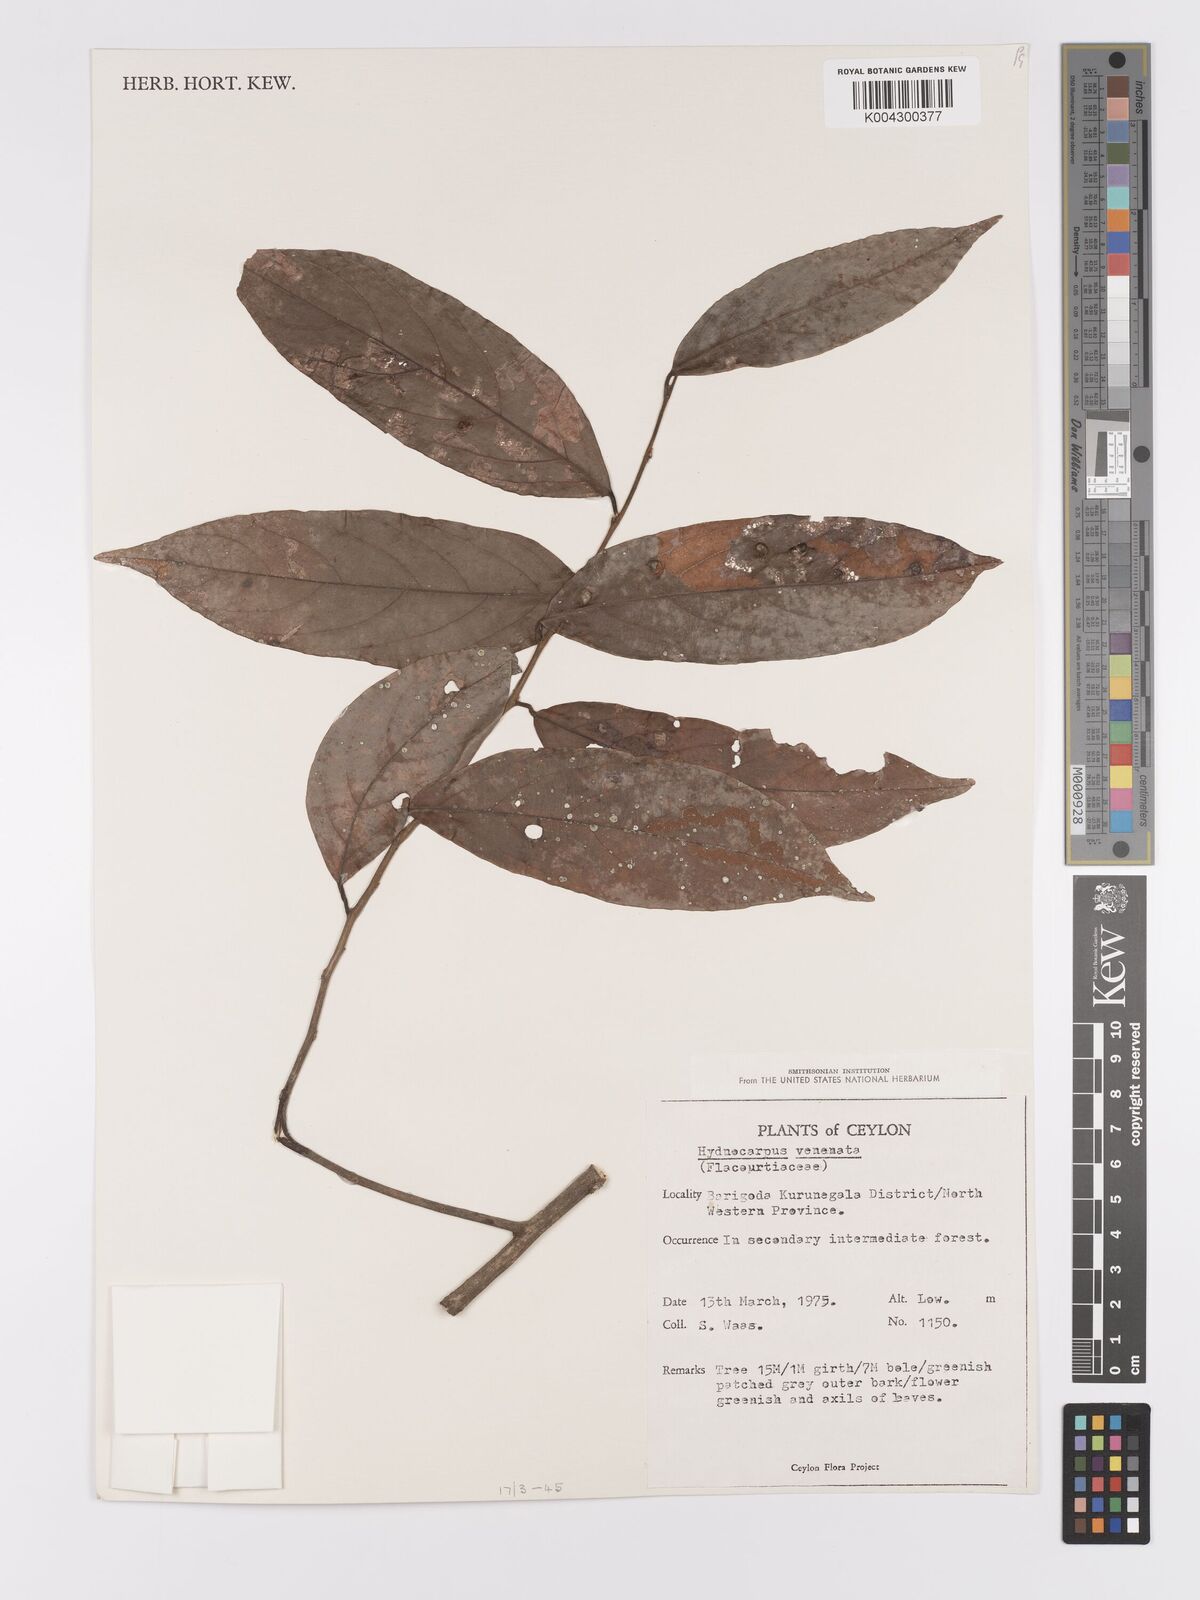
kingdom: Plantae
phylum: Tracheophyta
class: Magnoliopsida
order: Malpighiales
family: Achariaceae
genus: Hydnocarpus
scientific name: Hydnocarpus venenatus
